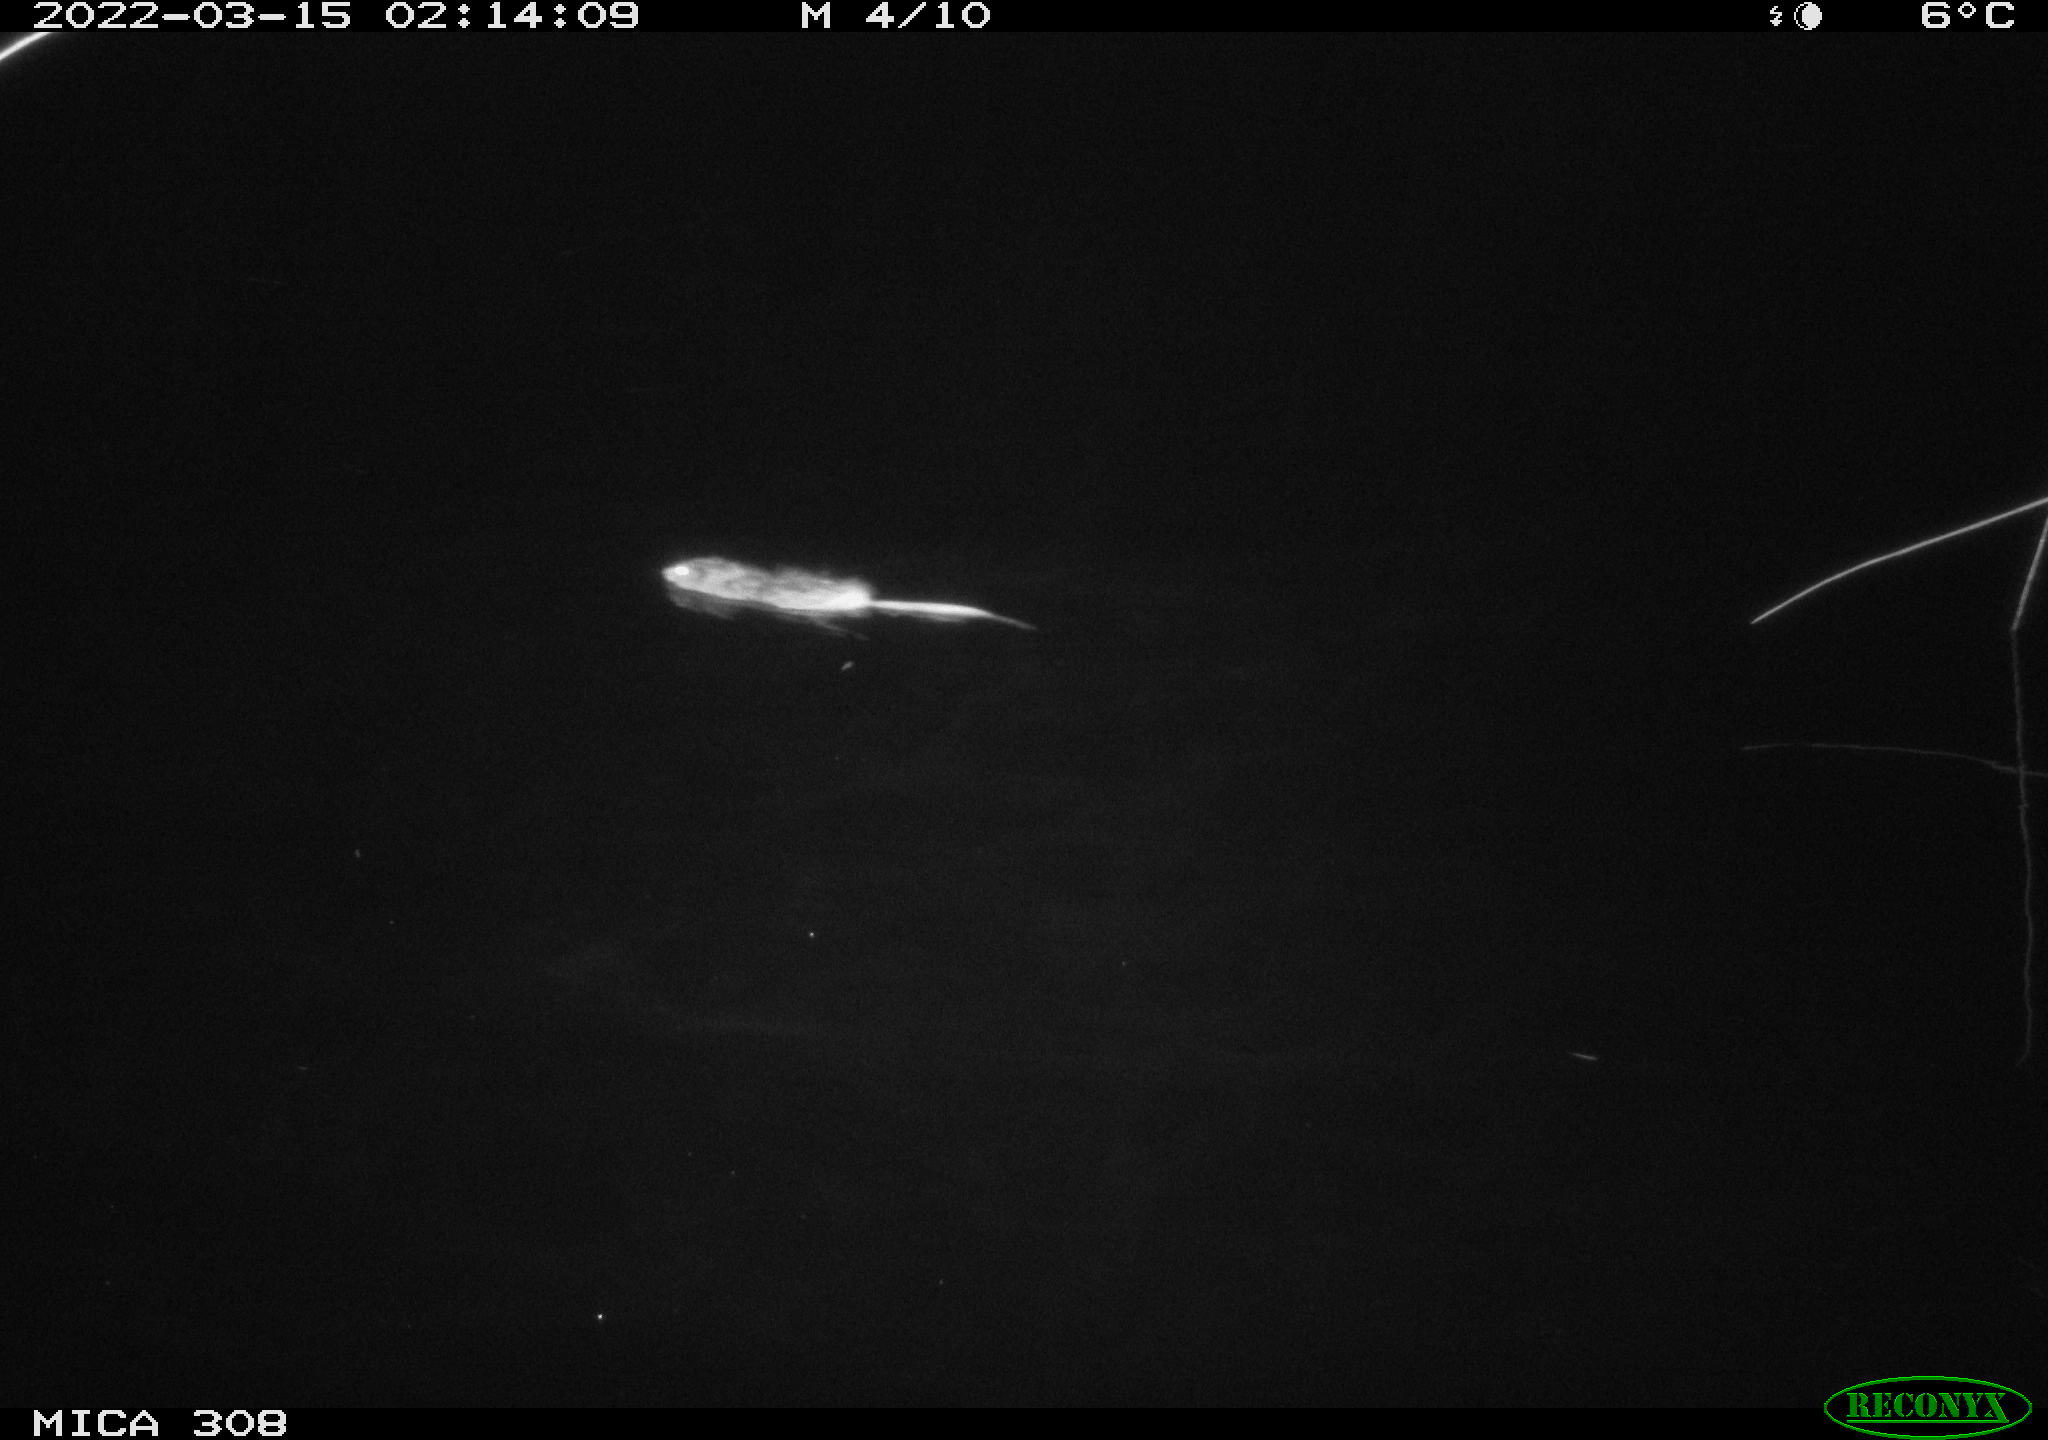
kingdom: Animalia
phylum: Chordata
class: Mammalia
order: Rodentia
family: Cricetidae
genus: Ondatra
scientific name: Ondatra zibethicus
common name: Muskrat
